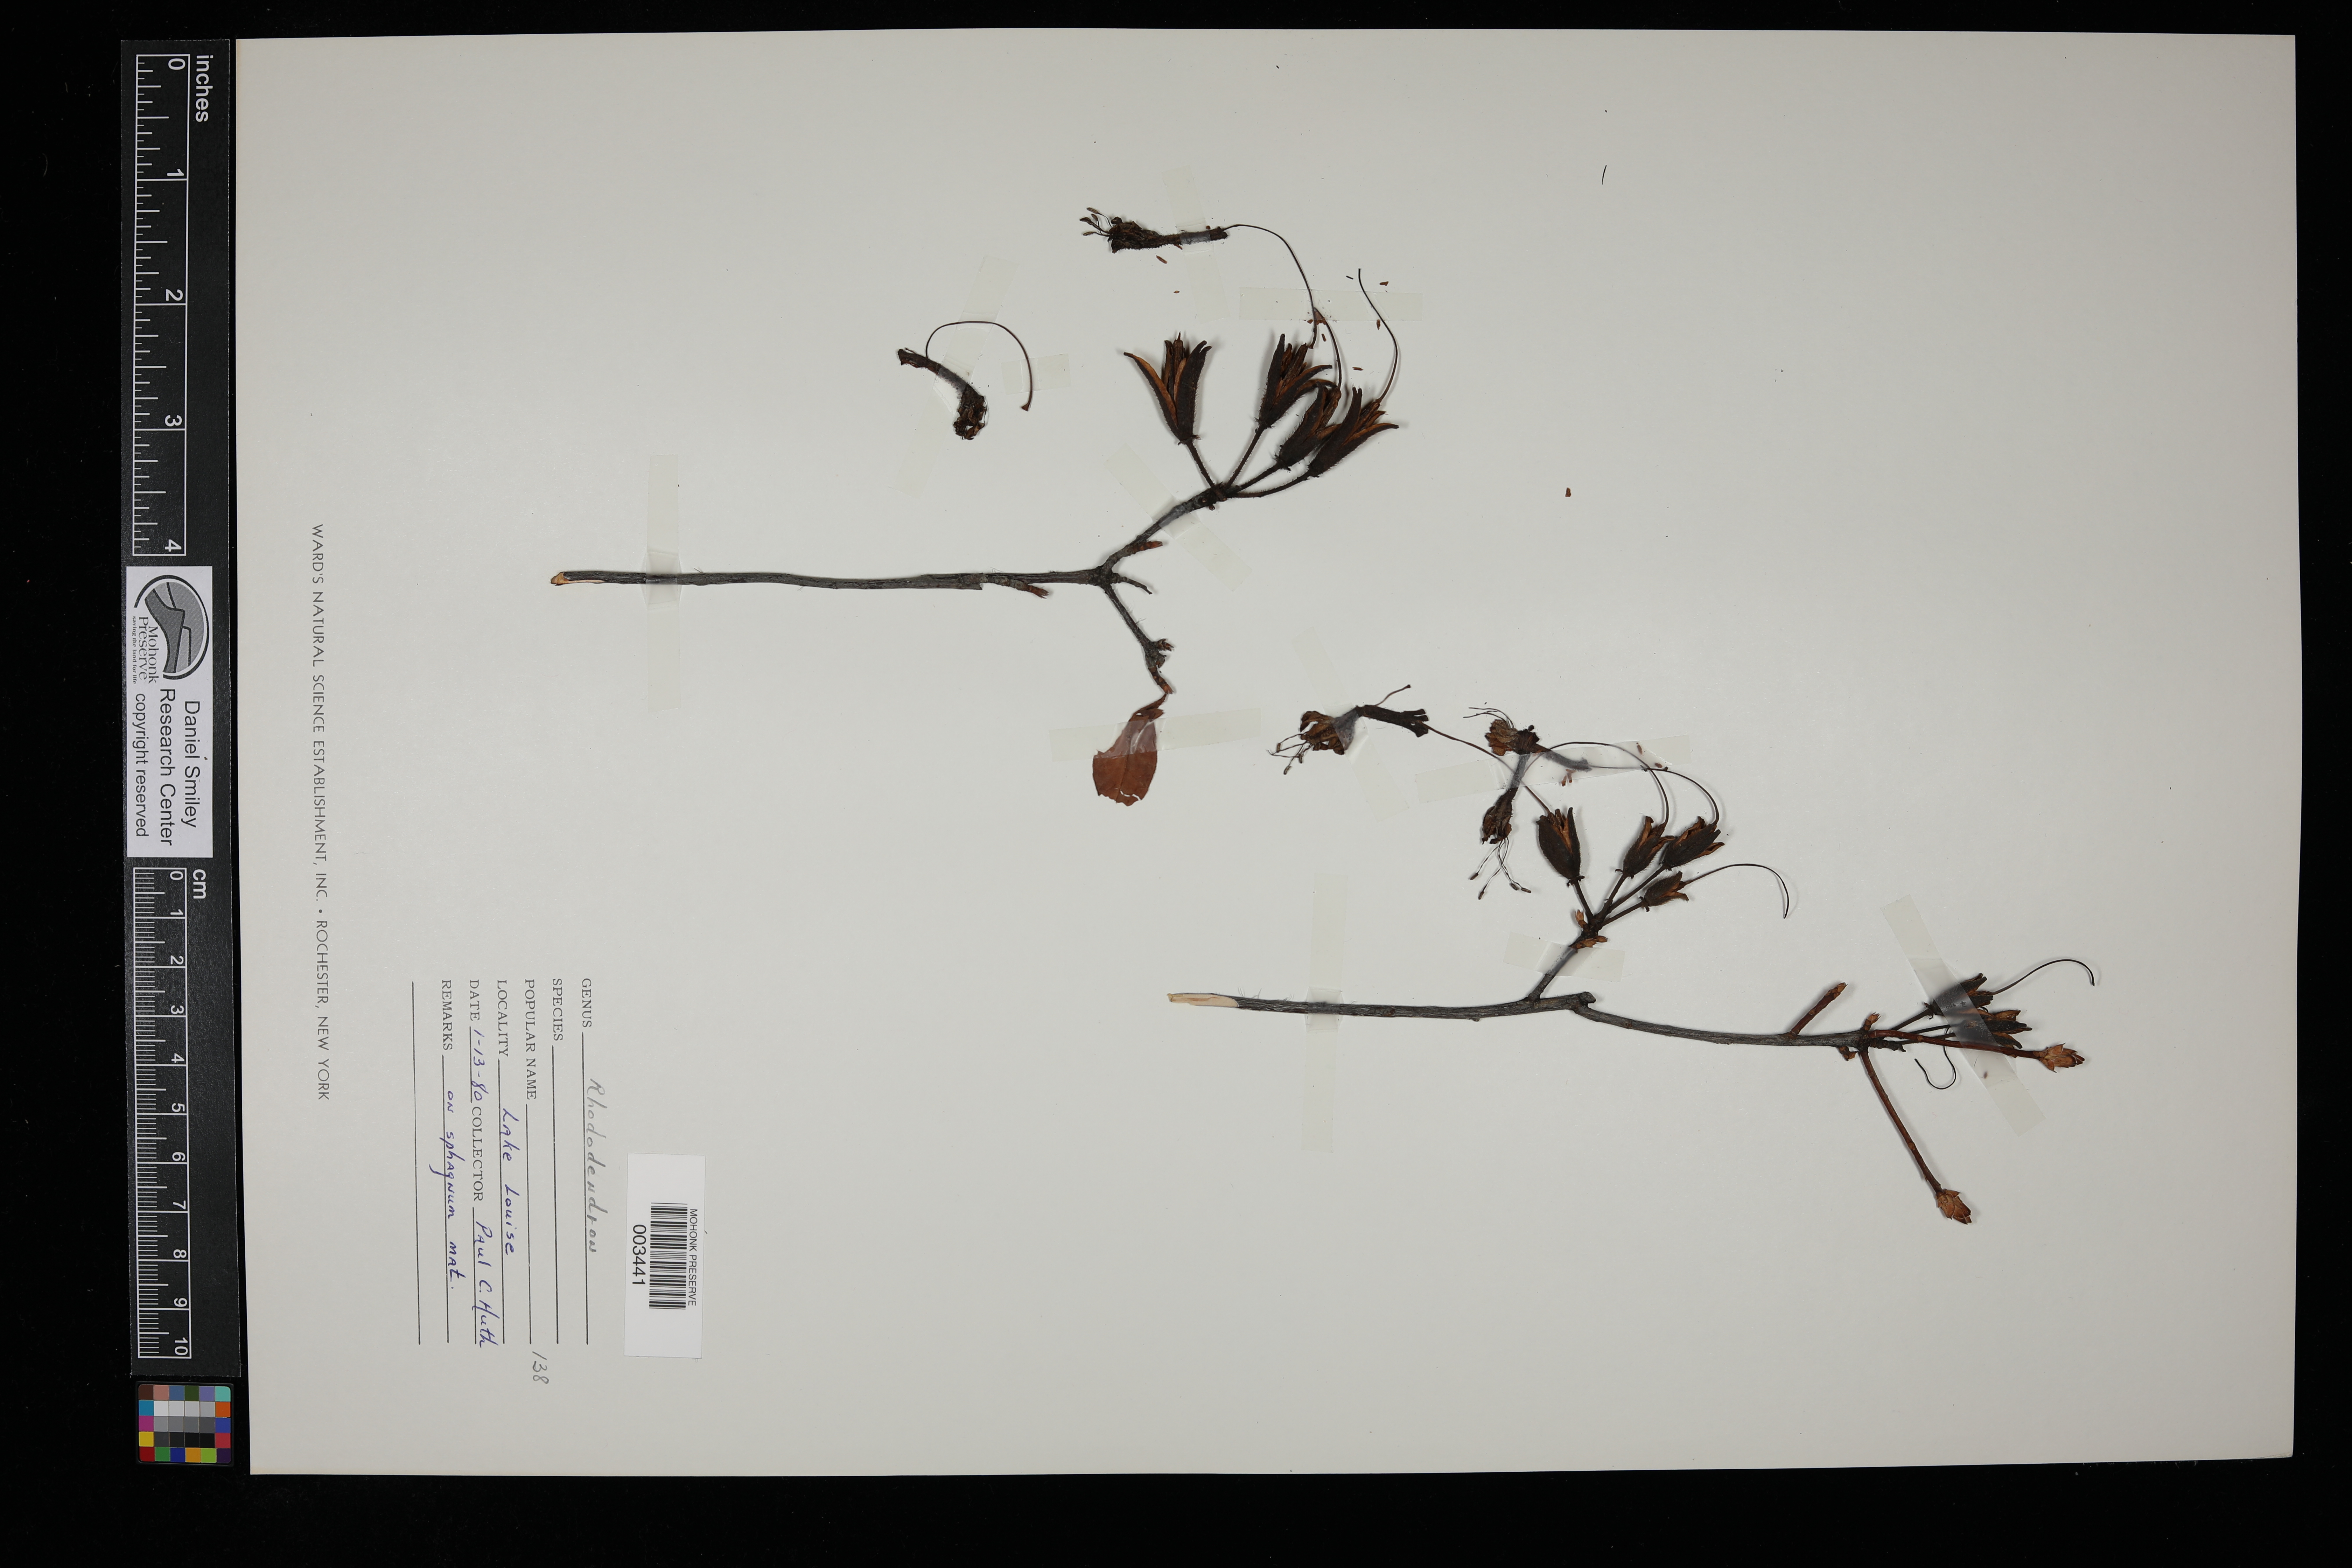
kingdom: Plantae
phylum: Tracheophyta
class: Magnoliopsida
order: Ericales
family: Ericaceae
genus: Rhododendron
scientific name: Rhododendron
